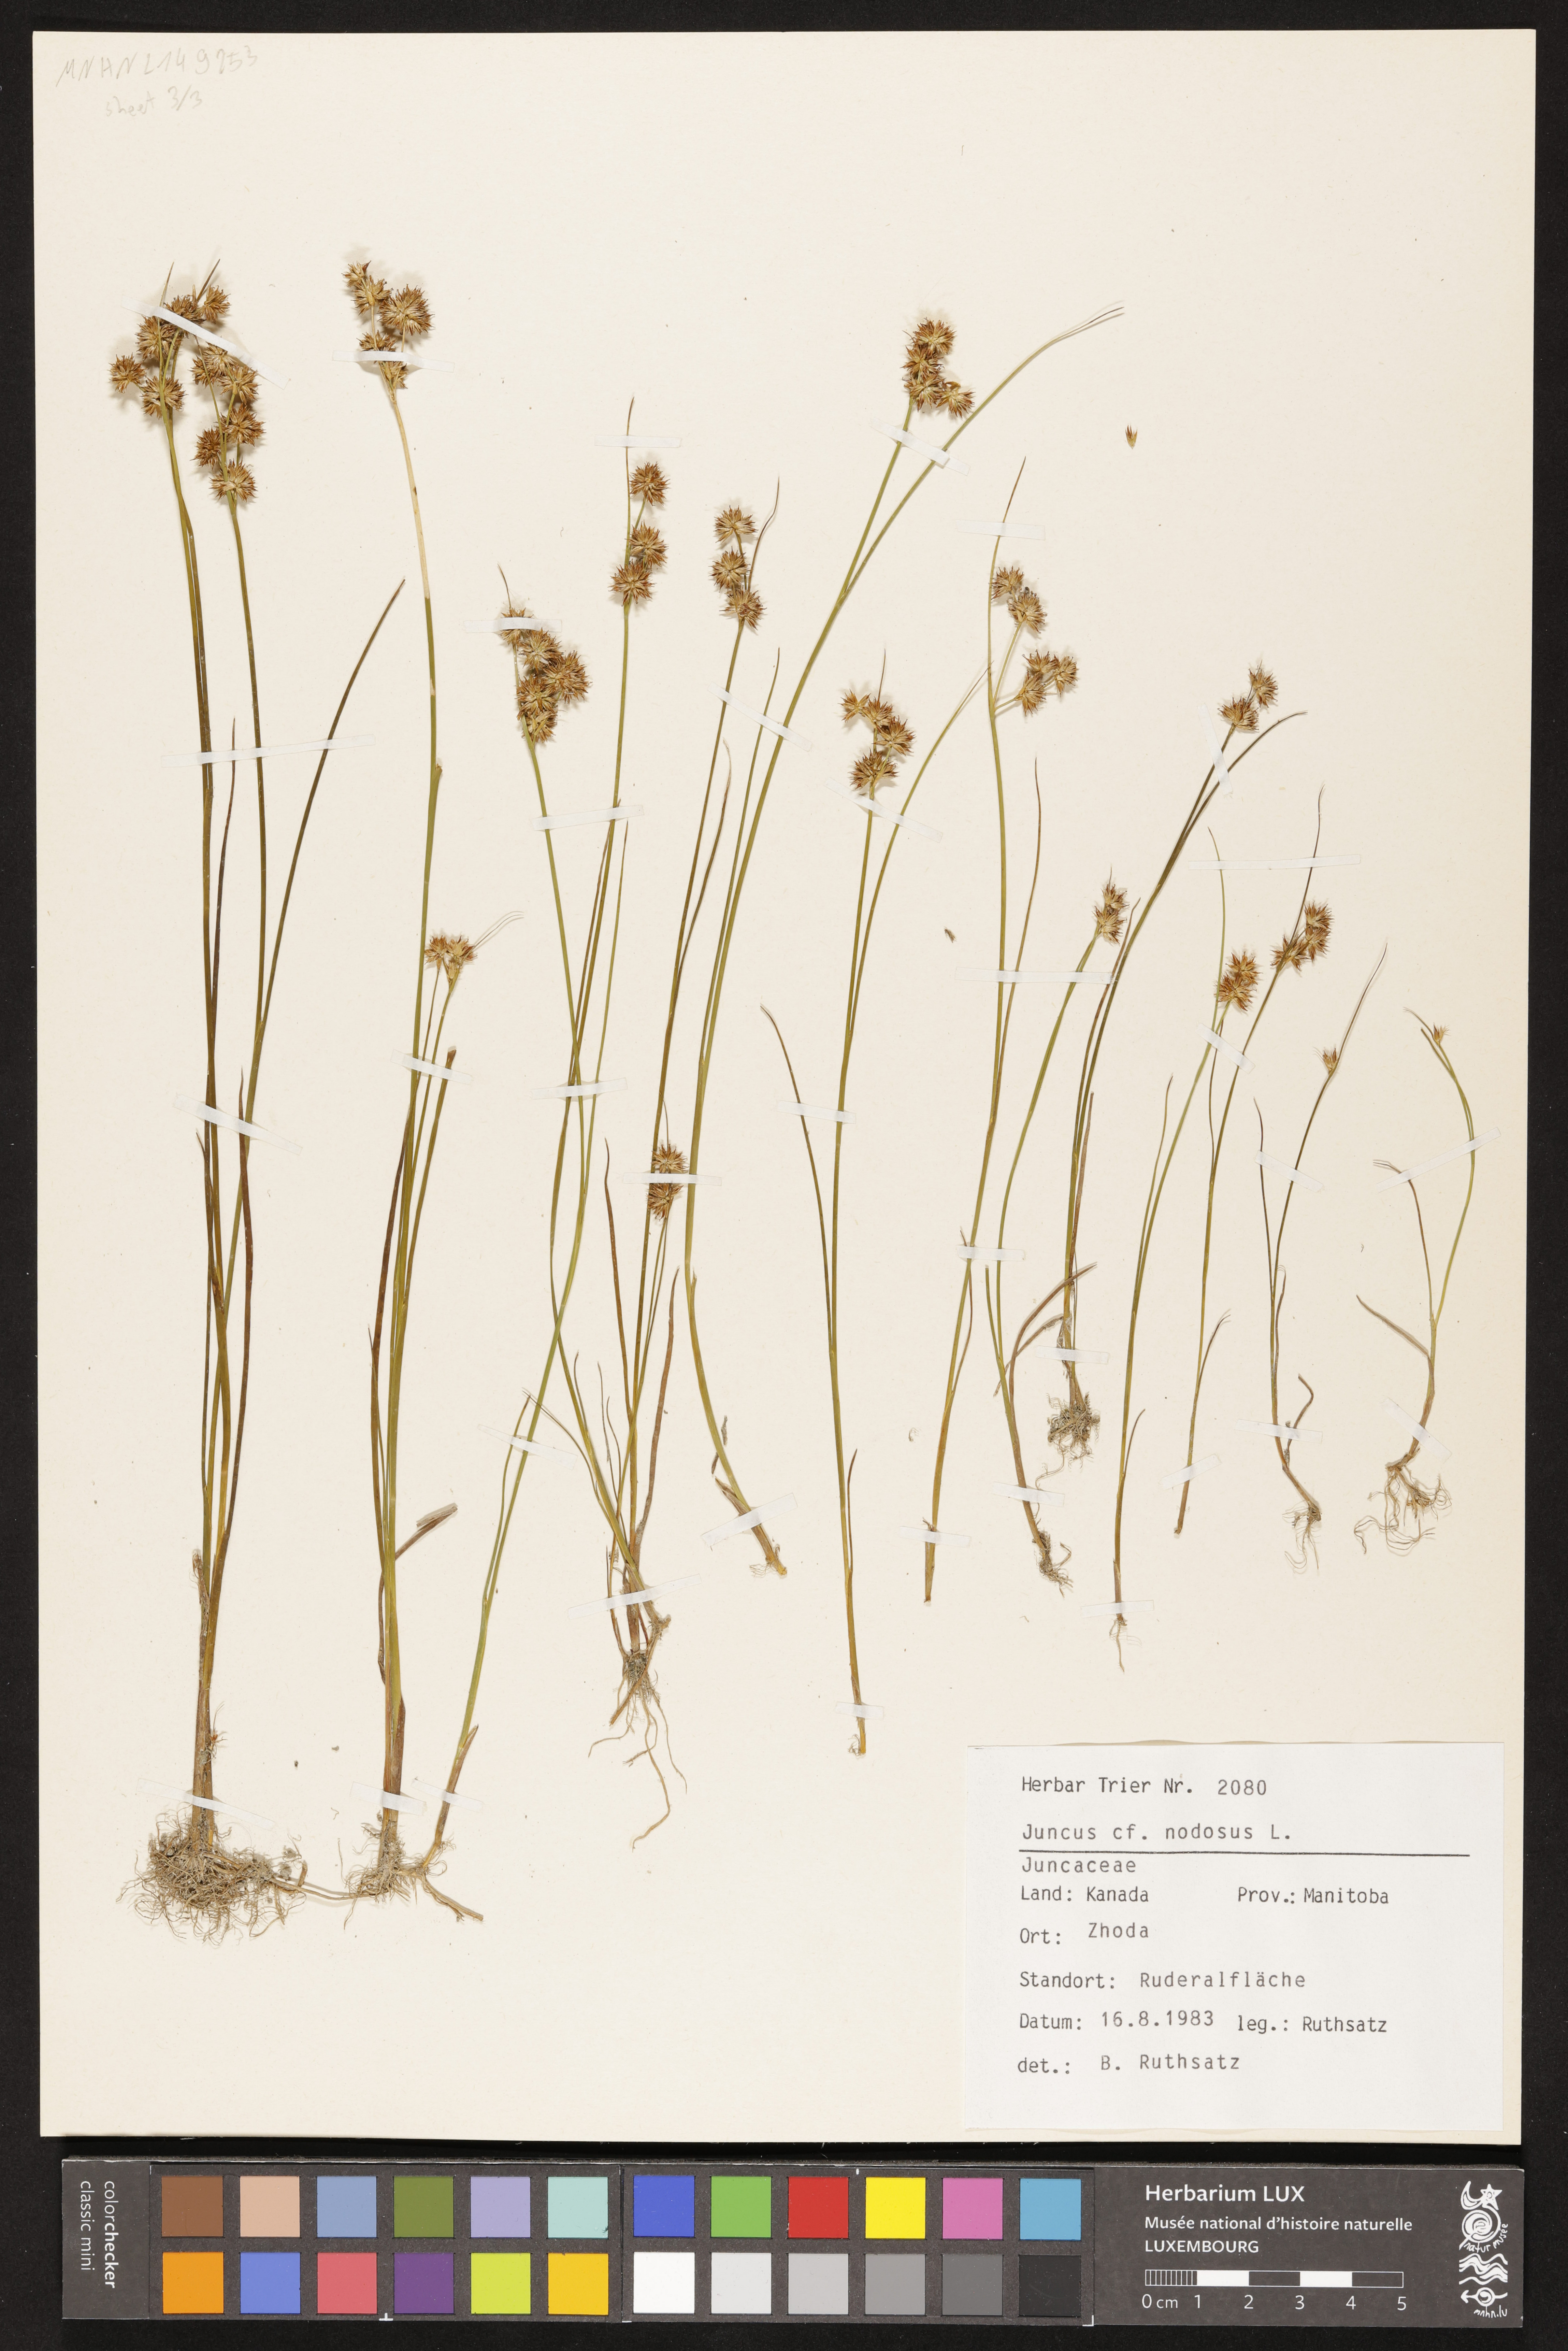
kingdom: Plantae
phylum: Tracheophyta
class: Liliopsida
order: Poales
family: Juncaceae
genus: Juncus
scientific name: Juncus nodosus
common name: Knotted rush
